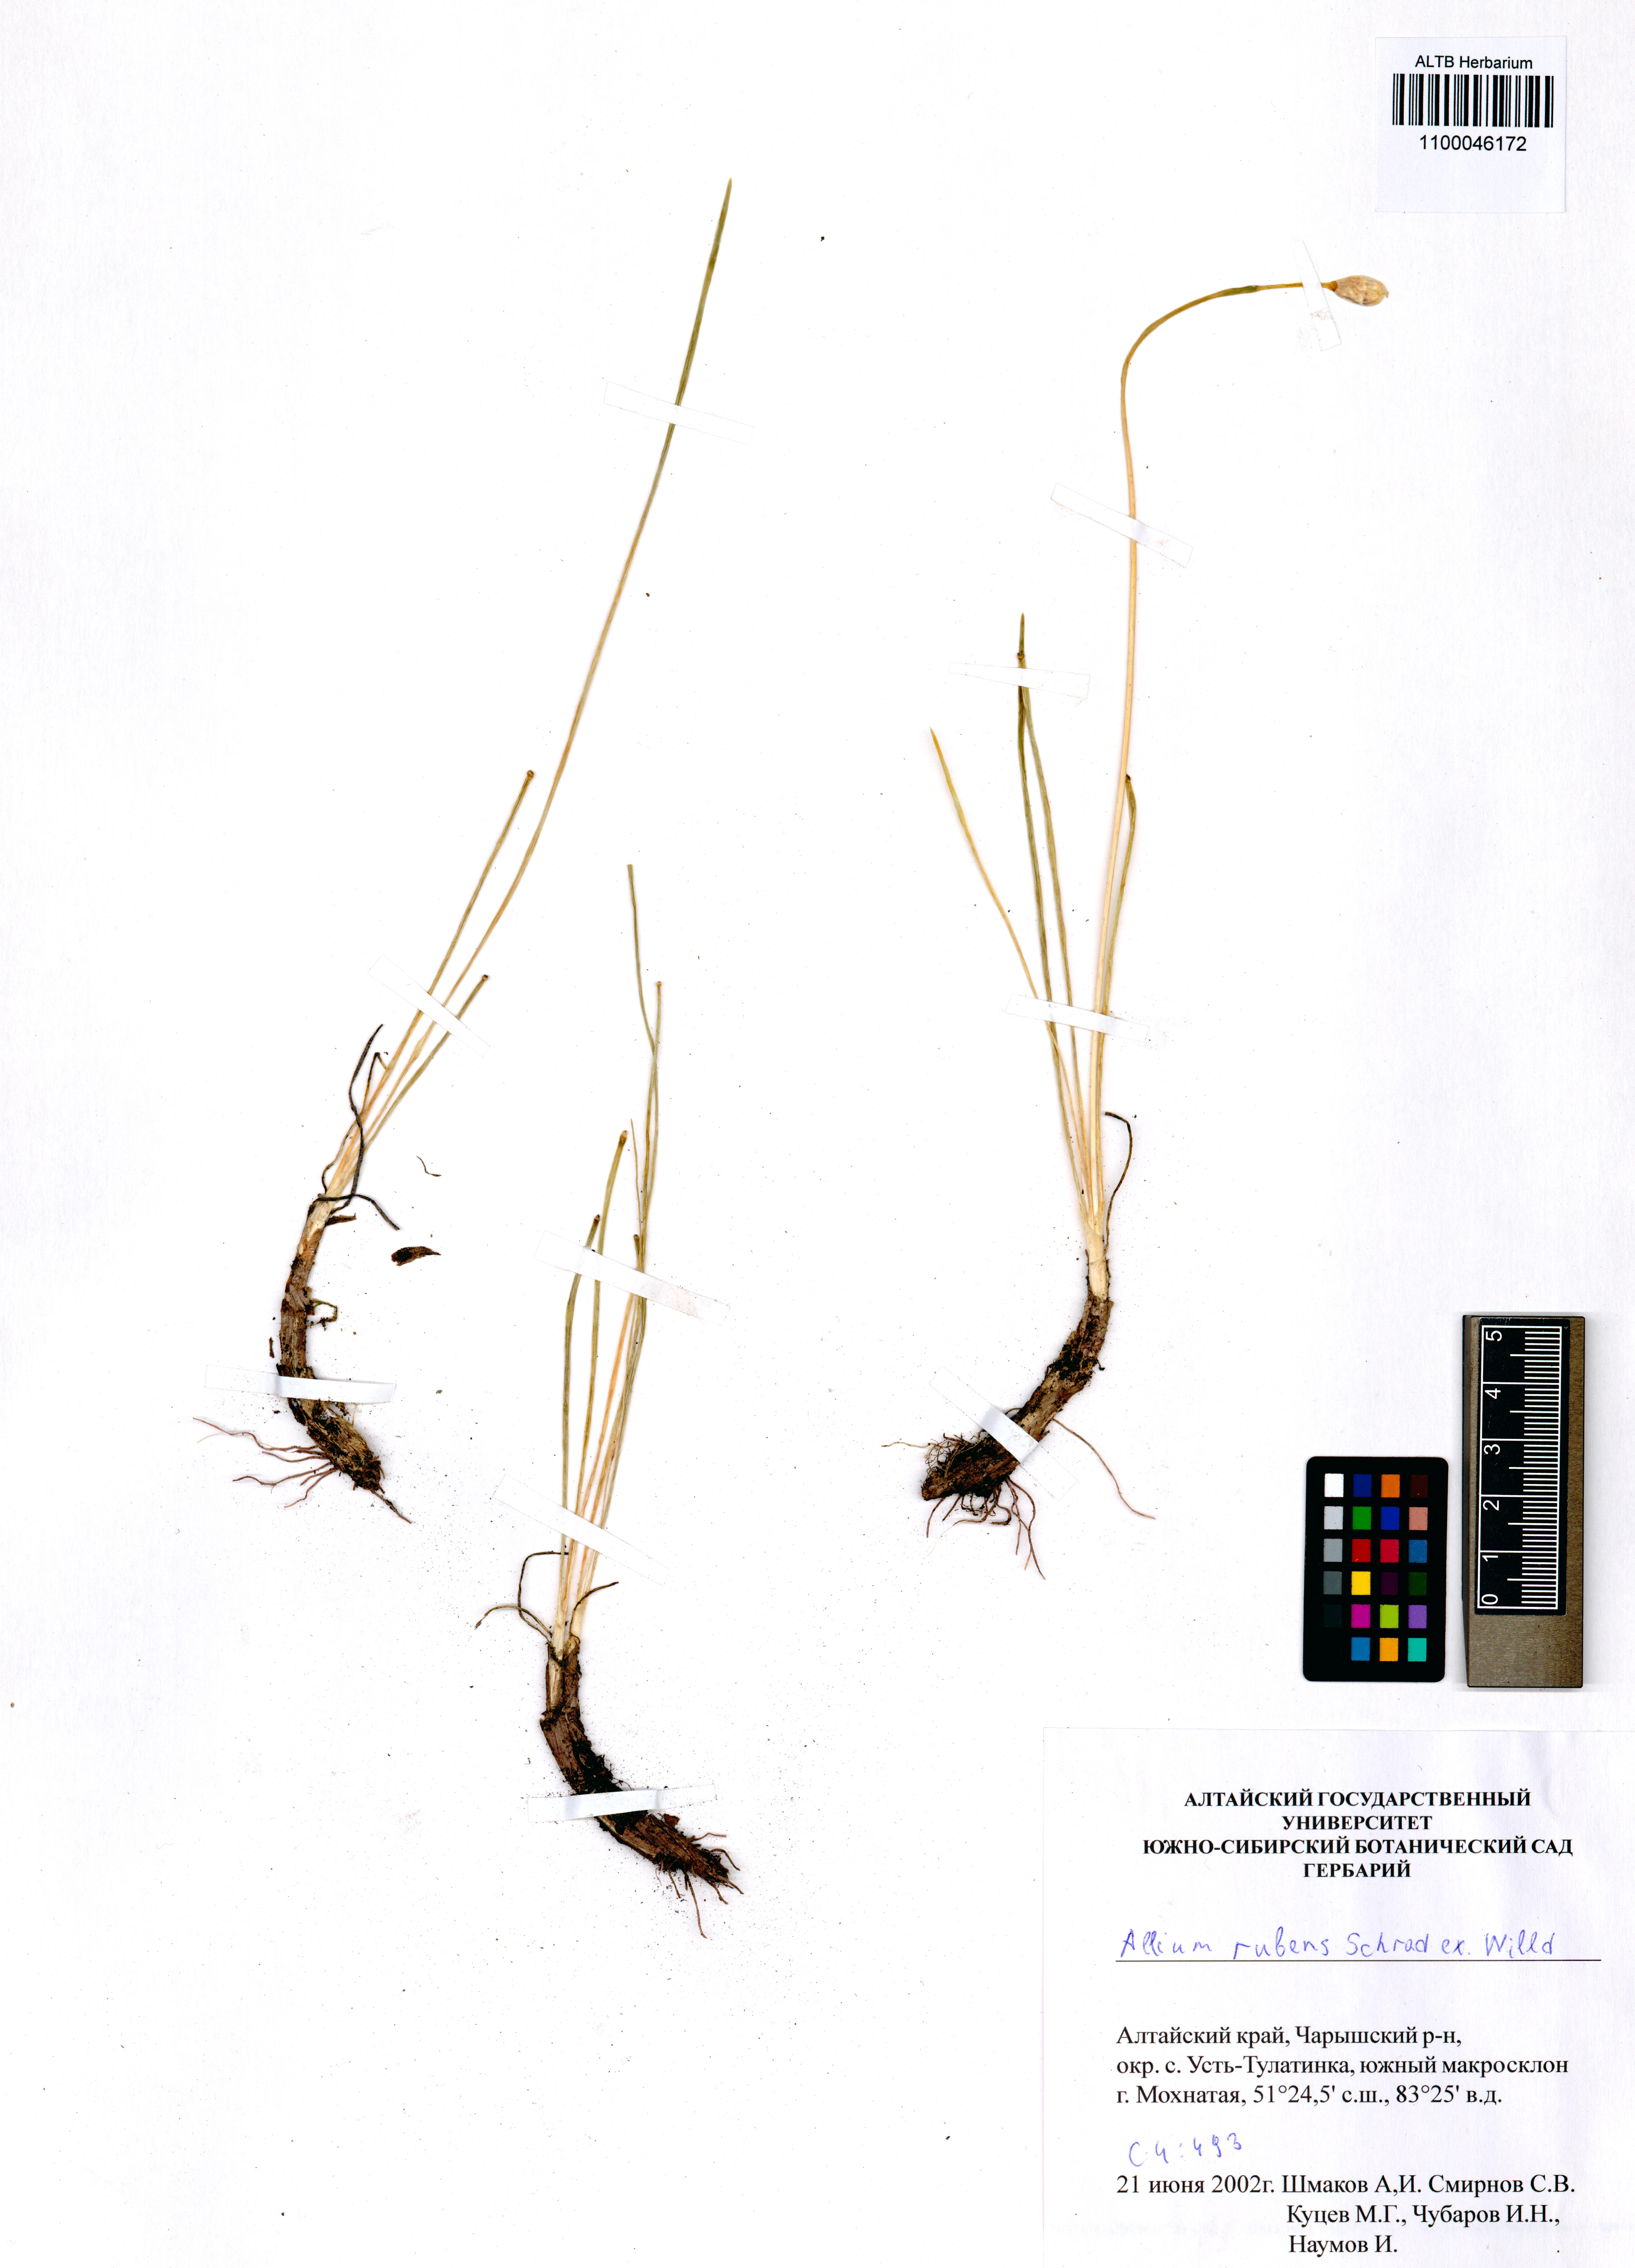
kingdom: Plantae
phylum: Tracheophyta
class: Liliopsida
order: Asparagales
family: Amaryllidaceae
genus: Allium
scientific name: Allium rubens
